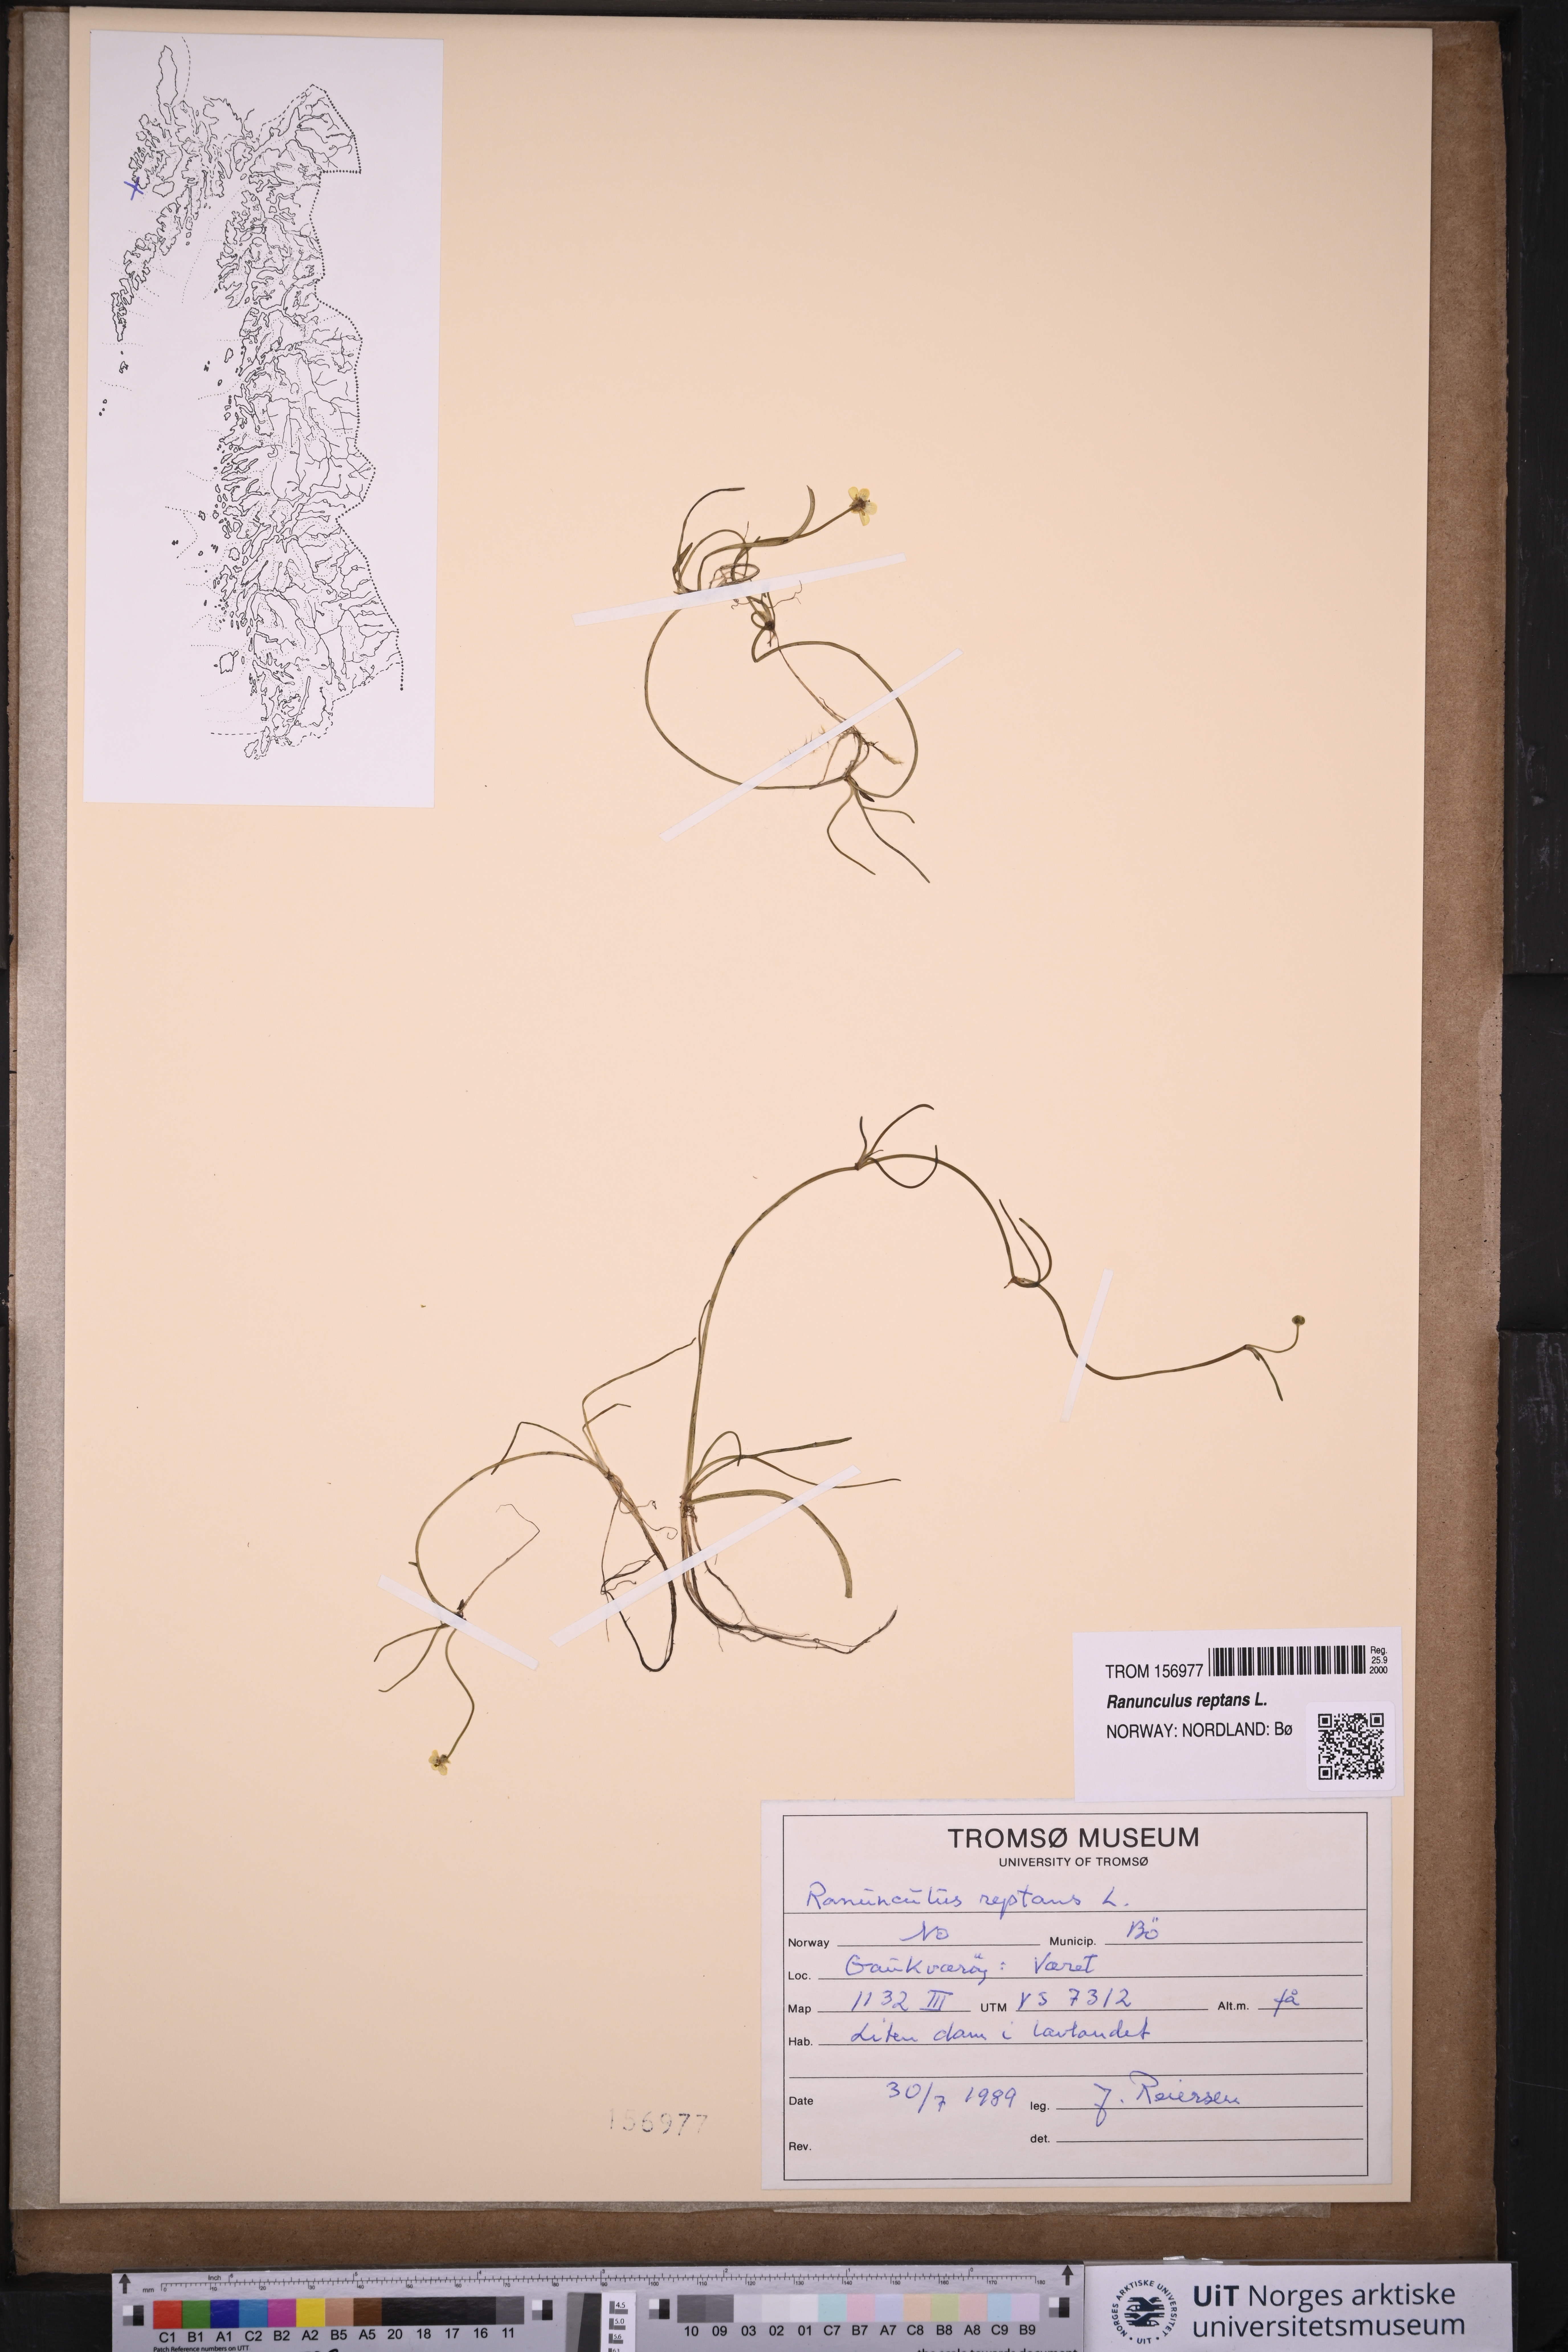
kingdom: Plantae
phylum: Tracheophyta
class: Magnoliopsida
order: Ranunculales
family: Ranunculaceae
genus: Ranunculus
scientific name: Ranunculus reptans
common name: Creeping spearwort
